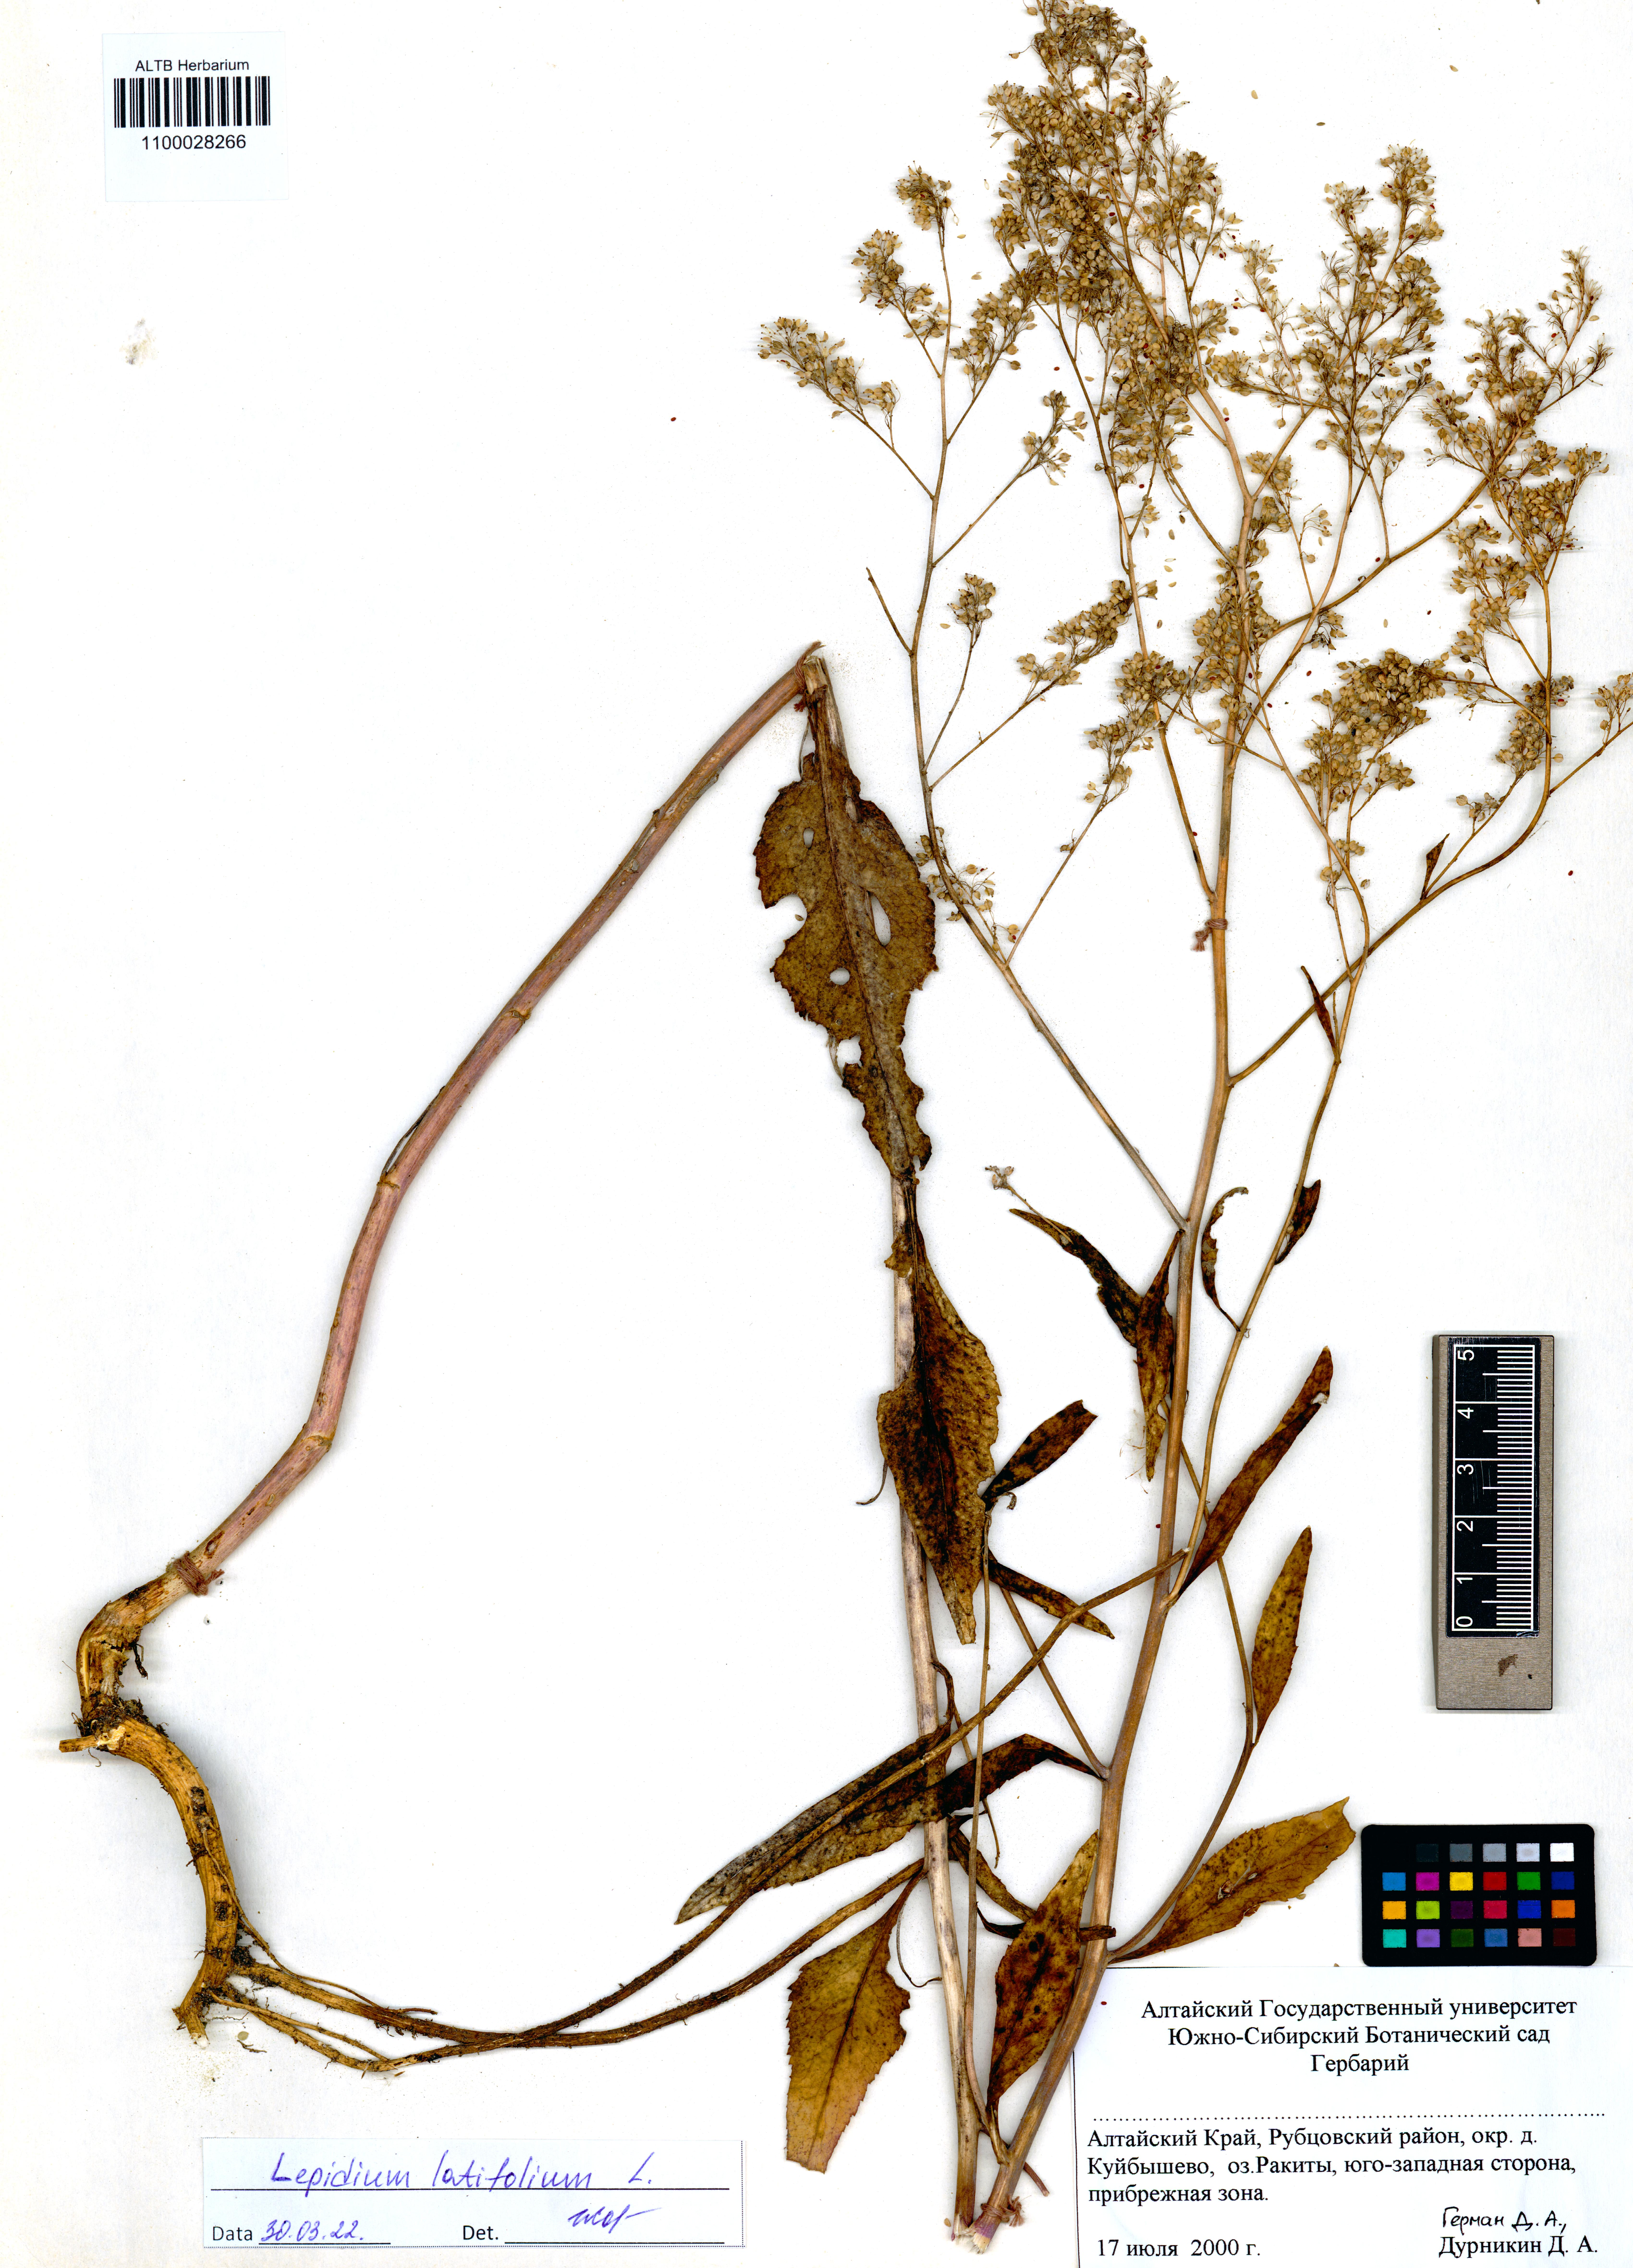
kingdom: Plantae
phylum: Tracheophyta
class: Magnoliopsida
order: Brassicales
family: Brassicaceae
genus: Lepidium
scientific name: Lepidium latifolium
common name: Dittander
